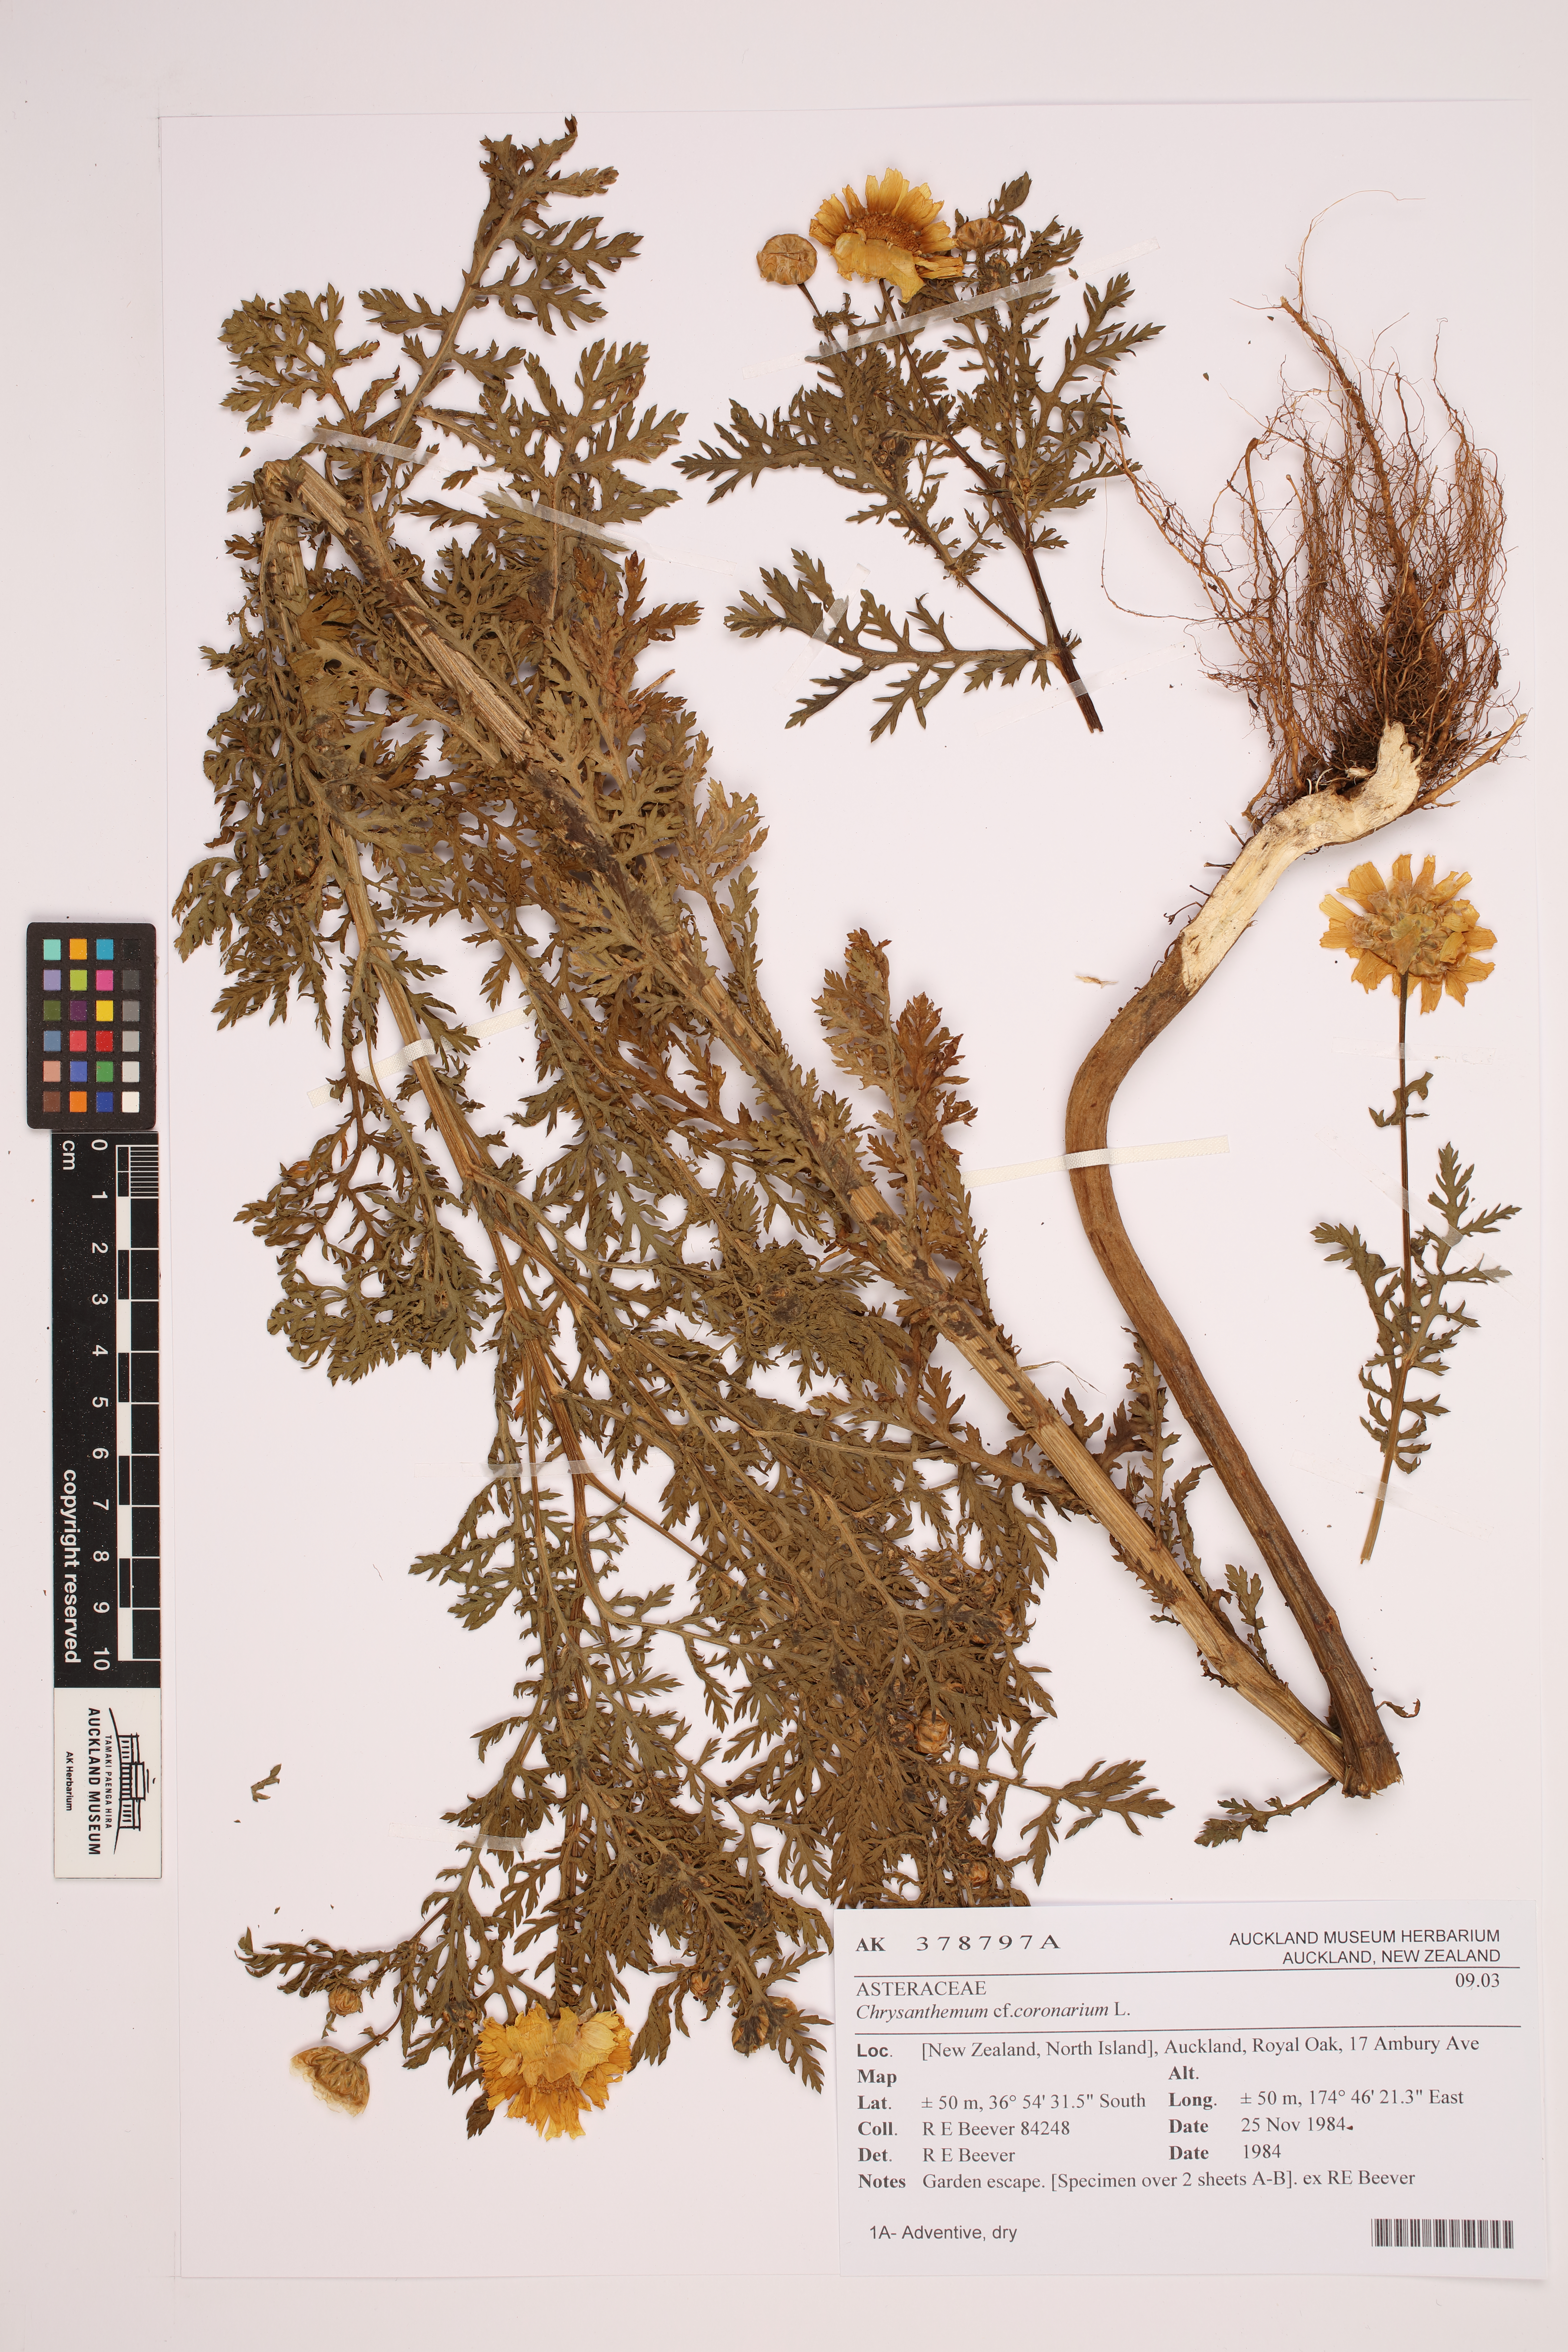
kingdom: Plantae
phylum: Tracheophyta
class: Magnoliopsida
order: Asterales
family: Asteraceae
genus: Glebionis
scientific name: Glebionis coronaria
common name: Crowndaisy
